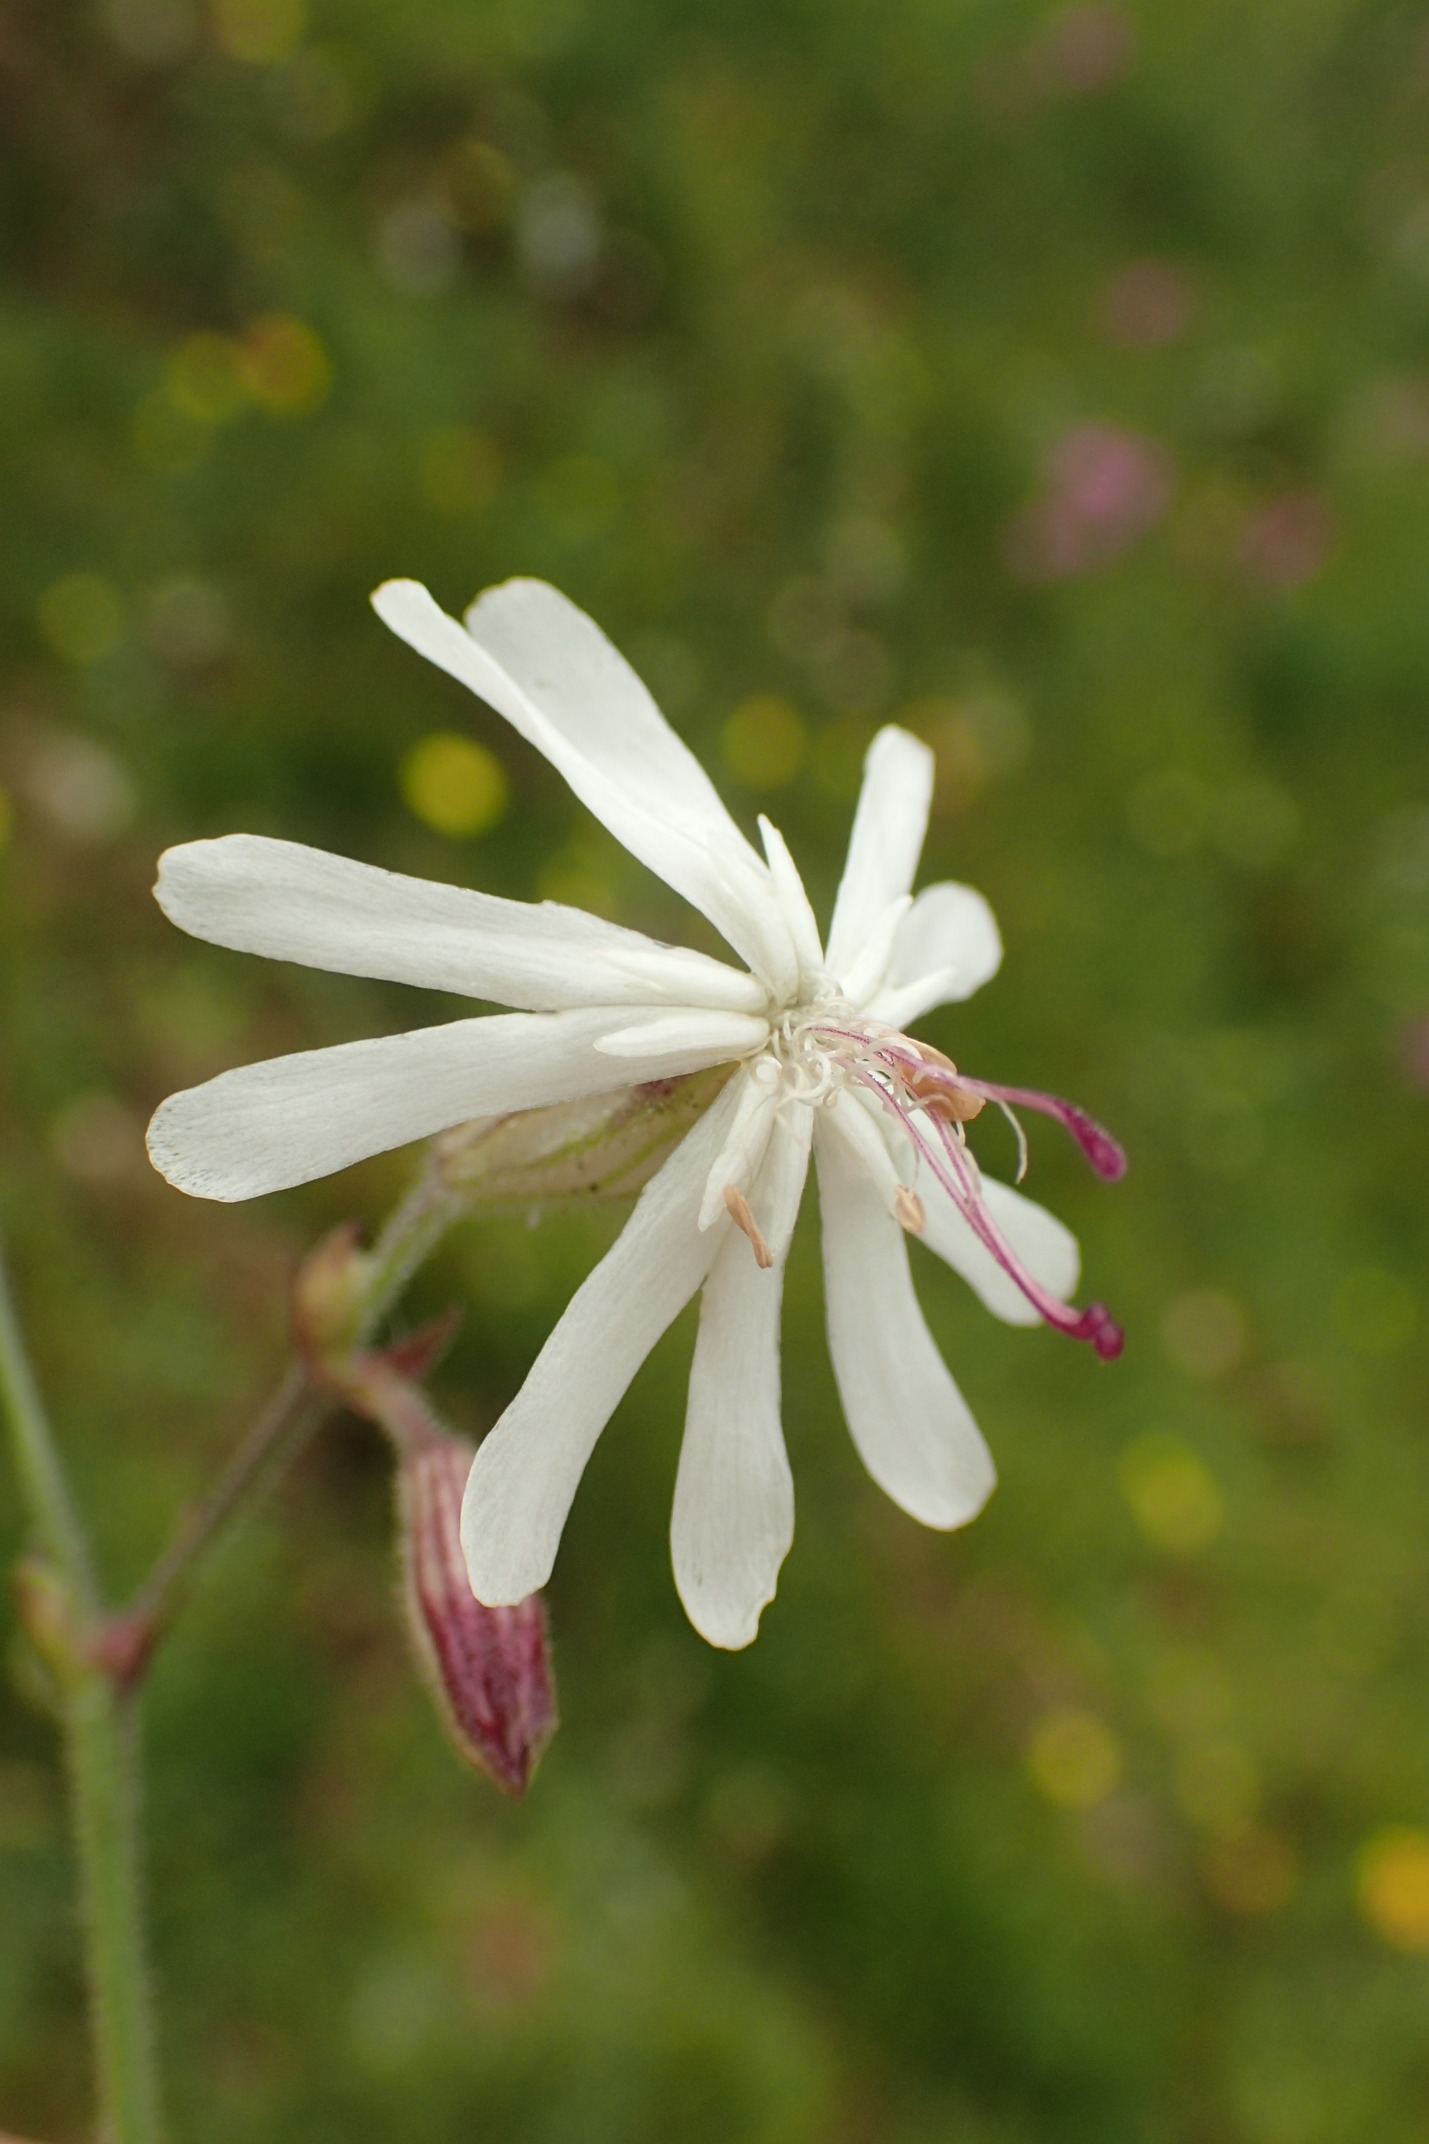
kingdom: Plantae
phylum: Tracheophyta
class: Magnoliopsida
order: Caryophyllales
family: Caryophyllaceae
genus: Silene
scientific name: Silene nutans
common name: Nikkende limurt
